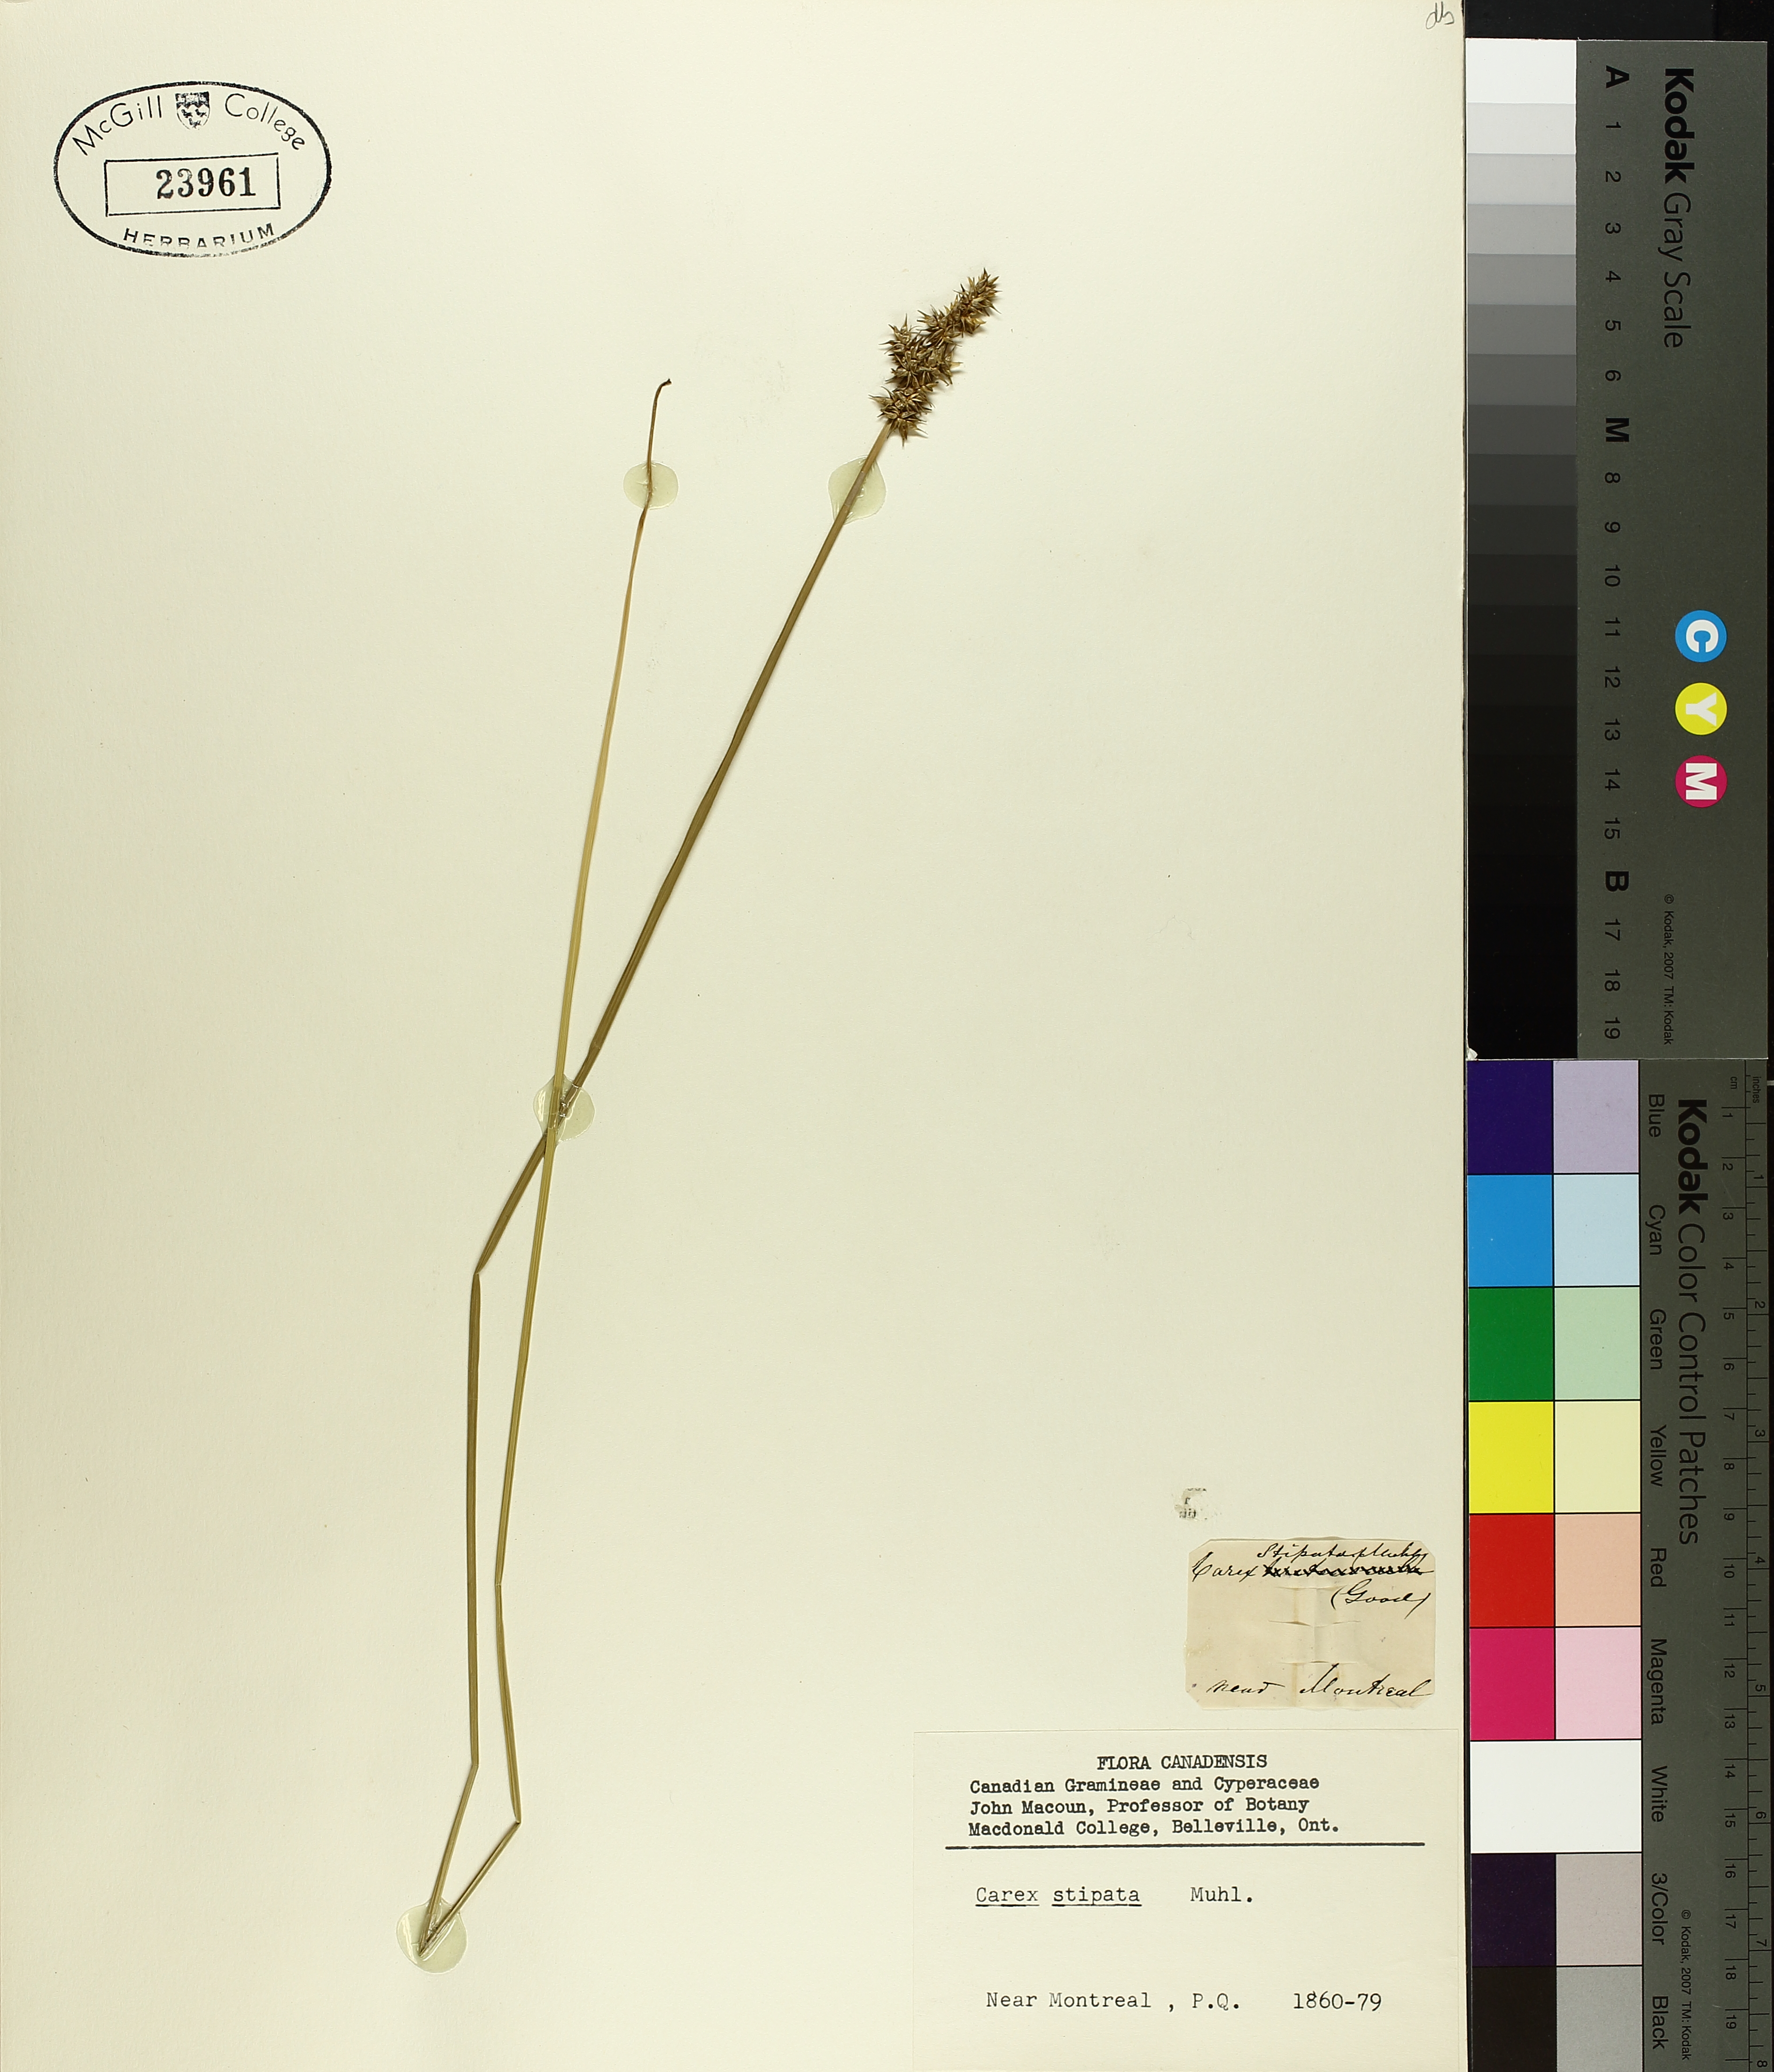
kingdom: Plantae
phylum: Tracheophyta
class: Liliopsida
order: Poales
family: Cyperaceae
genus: Carex
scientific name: Carex stipata
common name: Awl-fruited sedge
